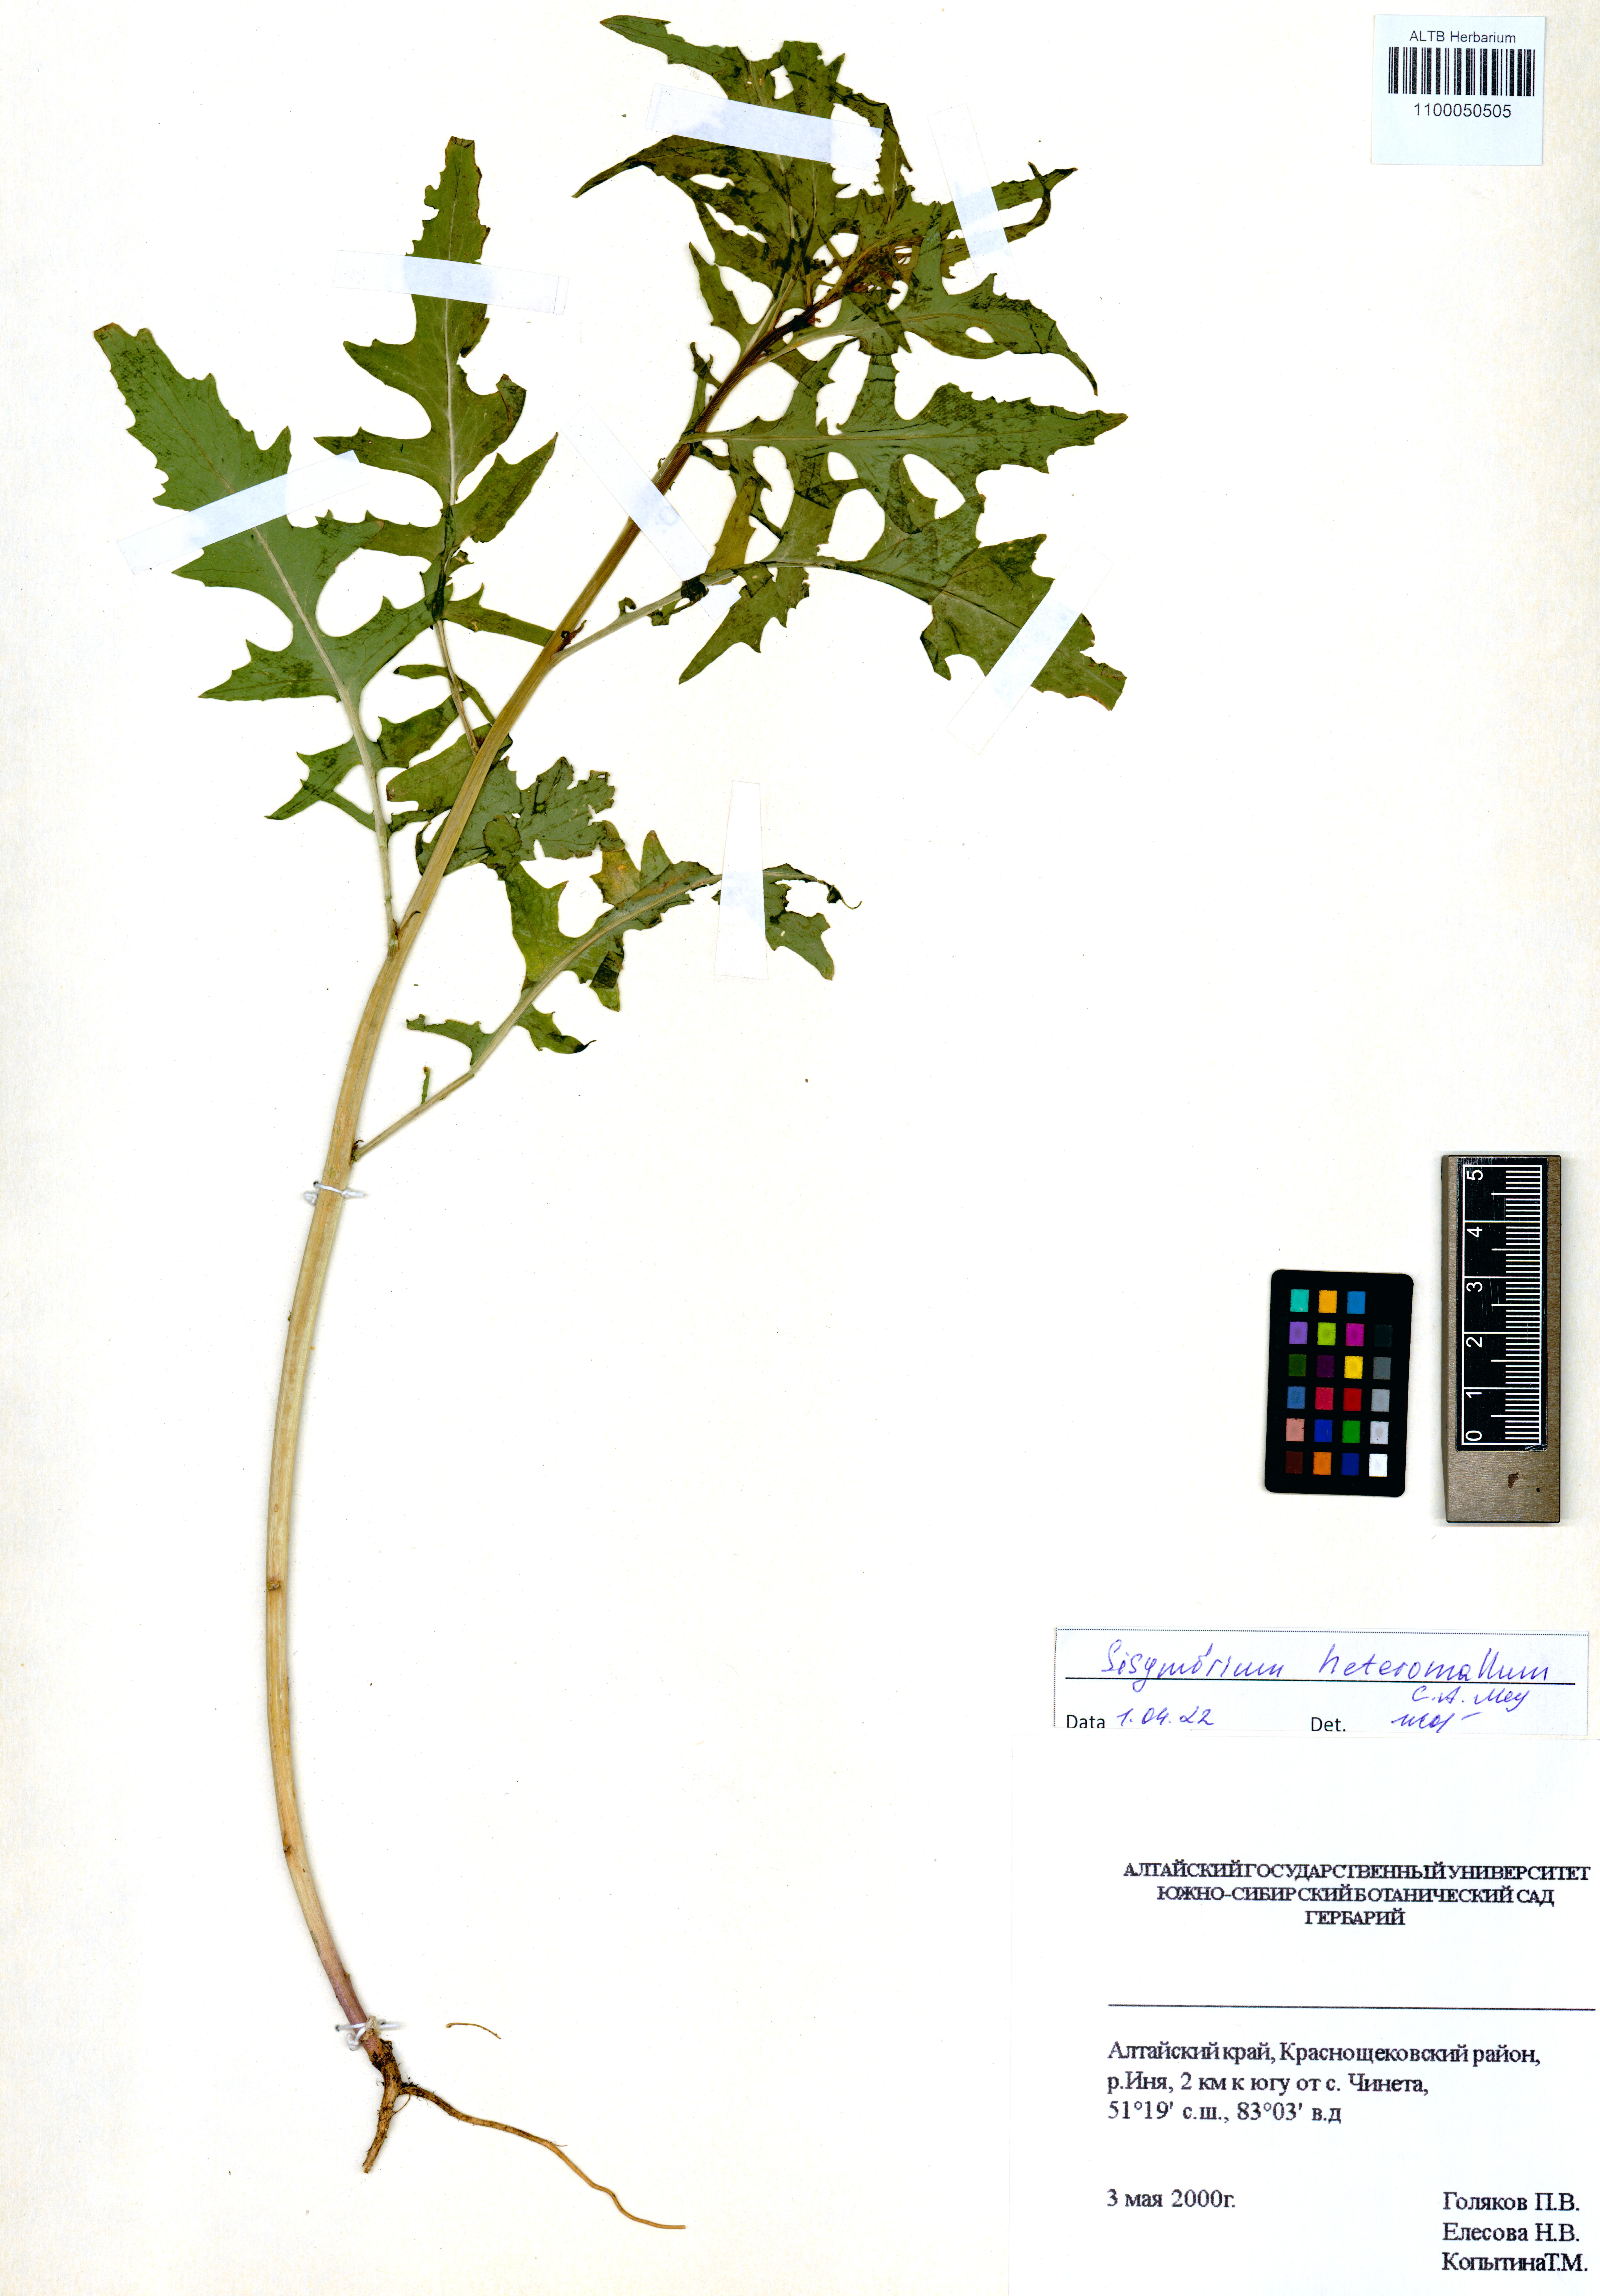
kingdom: Plantae
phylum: Tracheophyta
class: Magnoliopsida
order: Brassicales
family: Brassicaceae
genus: Sisymbrium
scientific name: Sisymbrium heteromallum
